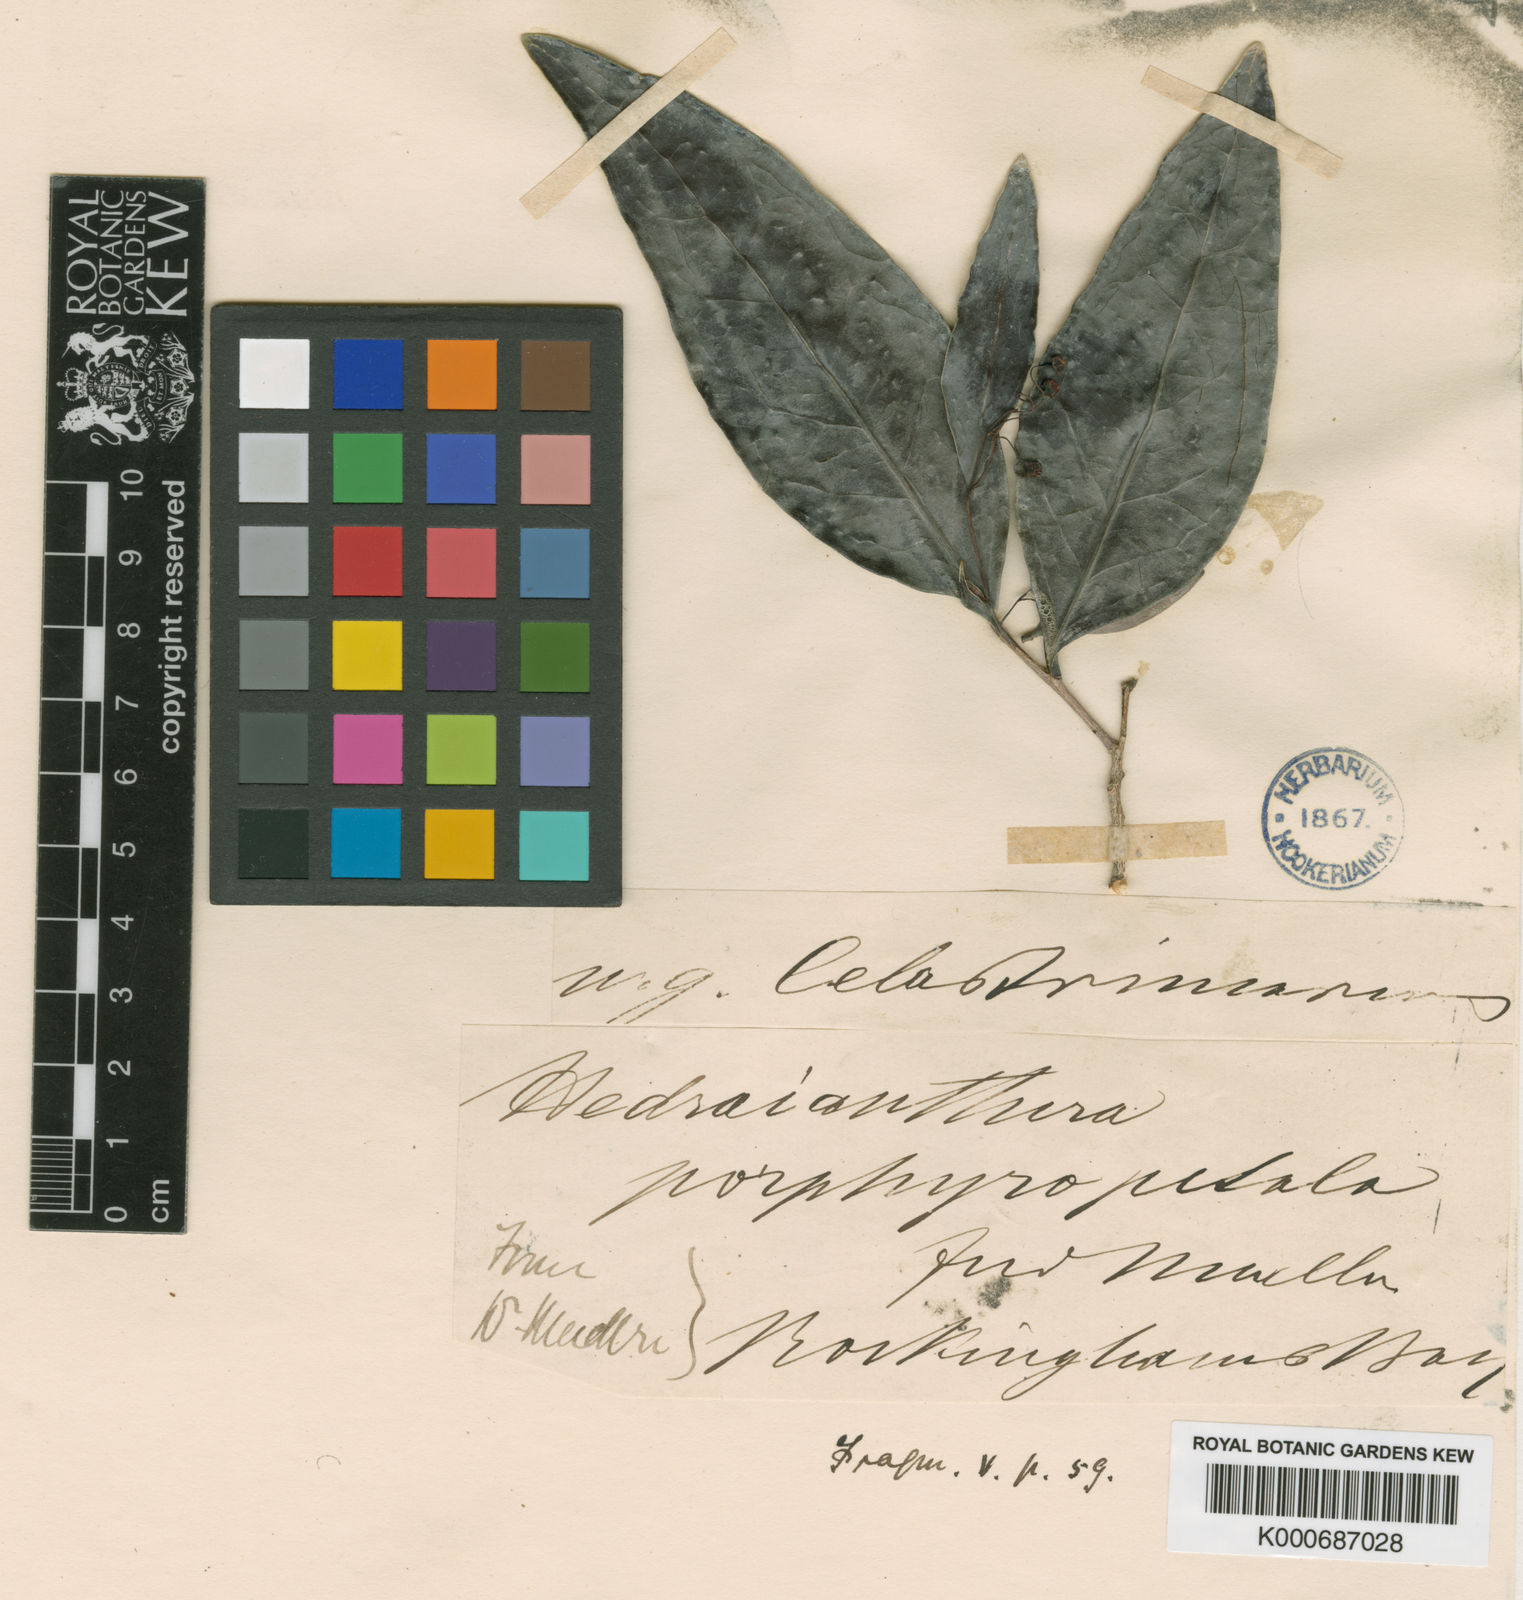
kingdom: Plantae
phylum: Tracheophyta
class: Magnoliopsida
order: Celastrales
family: Celastraceae
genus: Siphonodon
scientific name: Siphonodon
